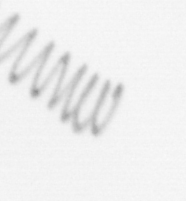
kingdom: Chromista
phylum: Ochrophyta
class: Bacillariophyceae
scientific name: Bacillariophyceae
